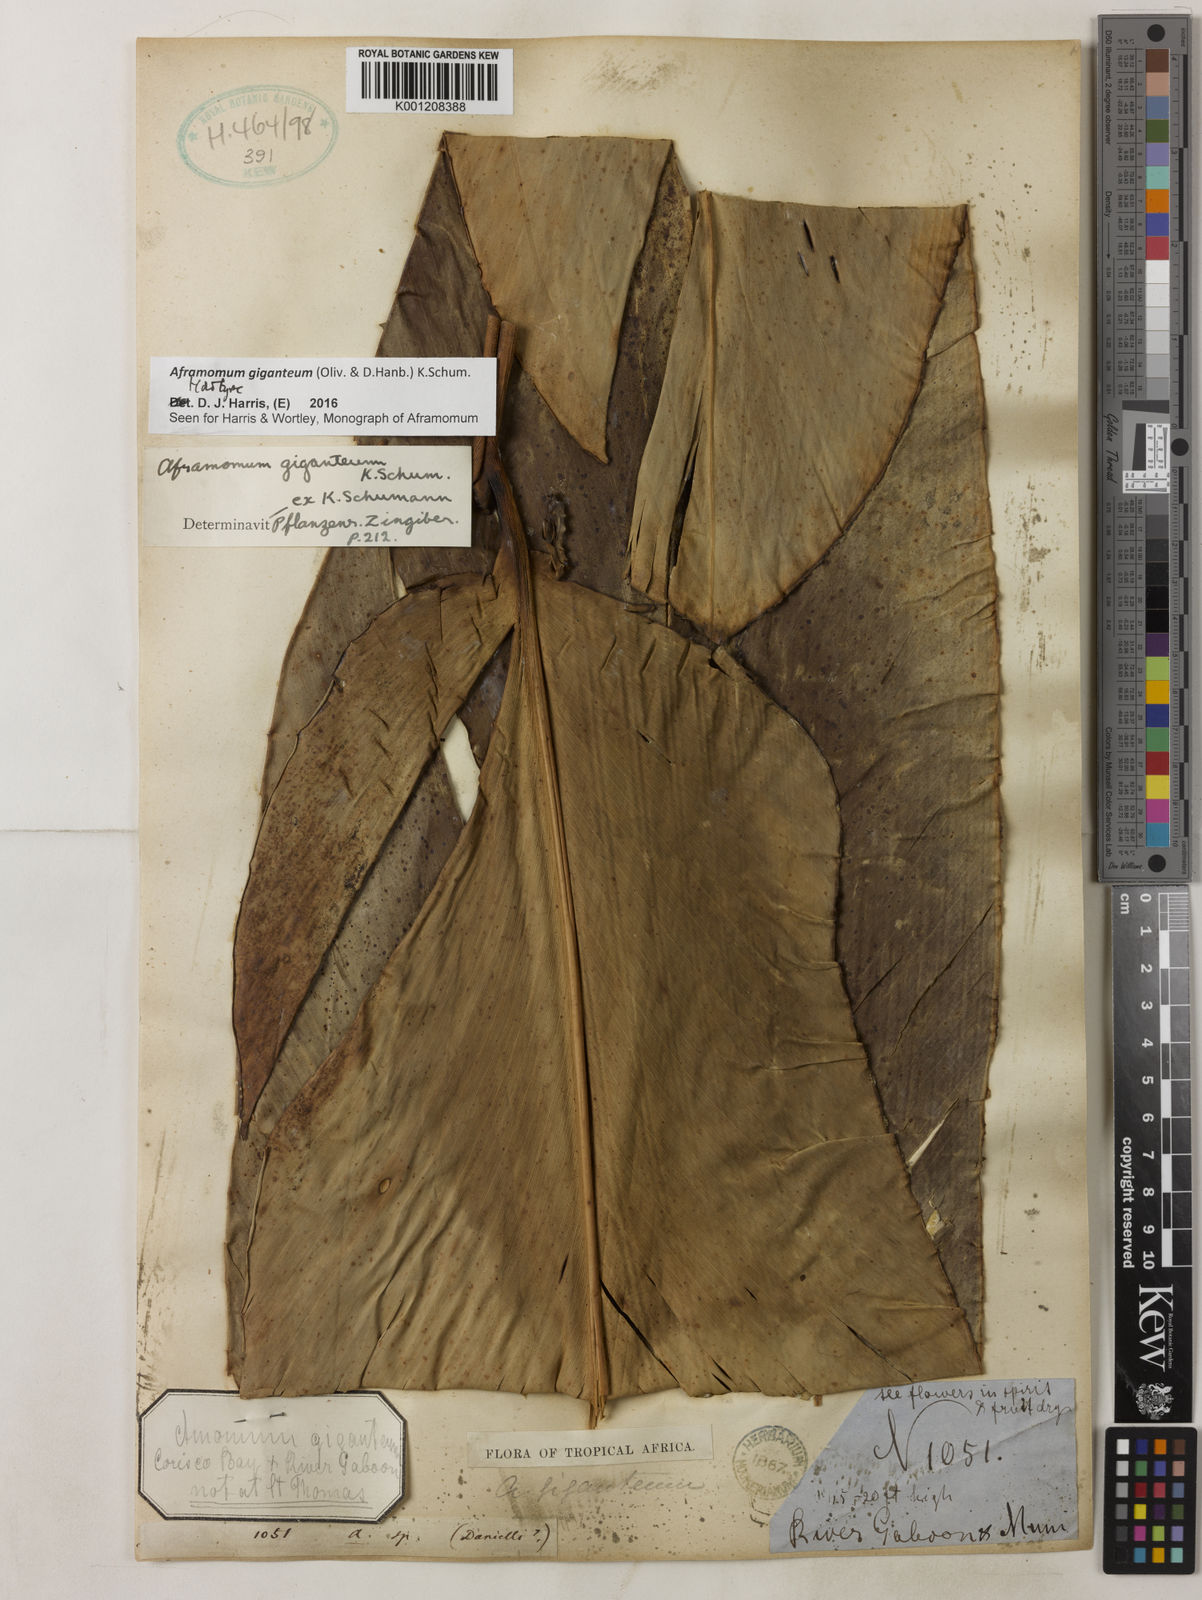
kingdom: Plantae
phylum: Tracheophyta
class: Liliopsida
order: Zingiberales
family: Zingiberaceae
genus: Aframomum
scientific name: Aframomum giganteum
